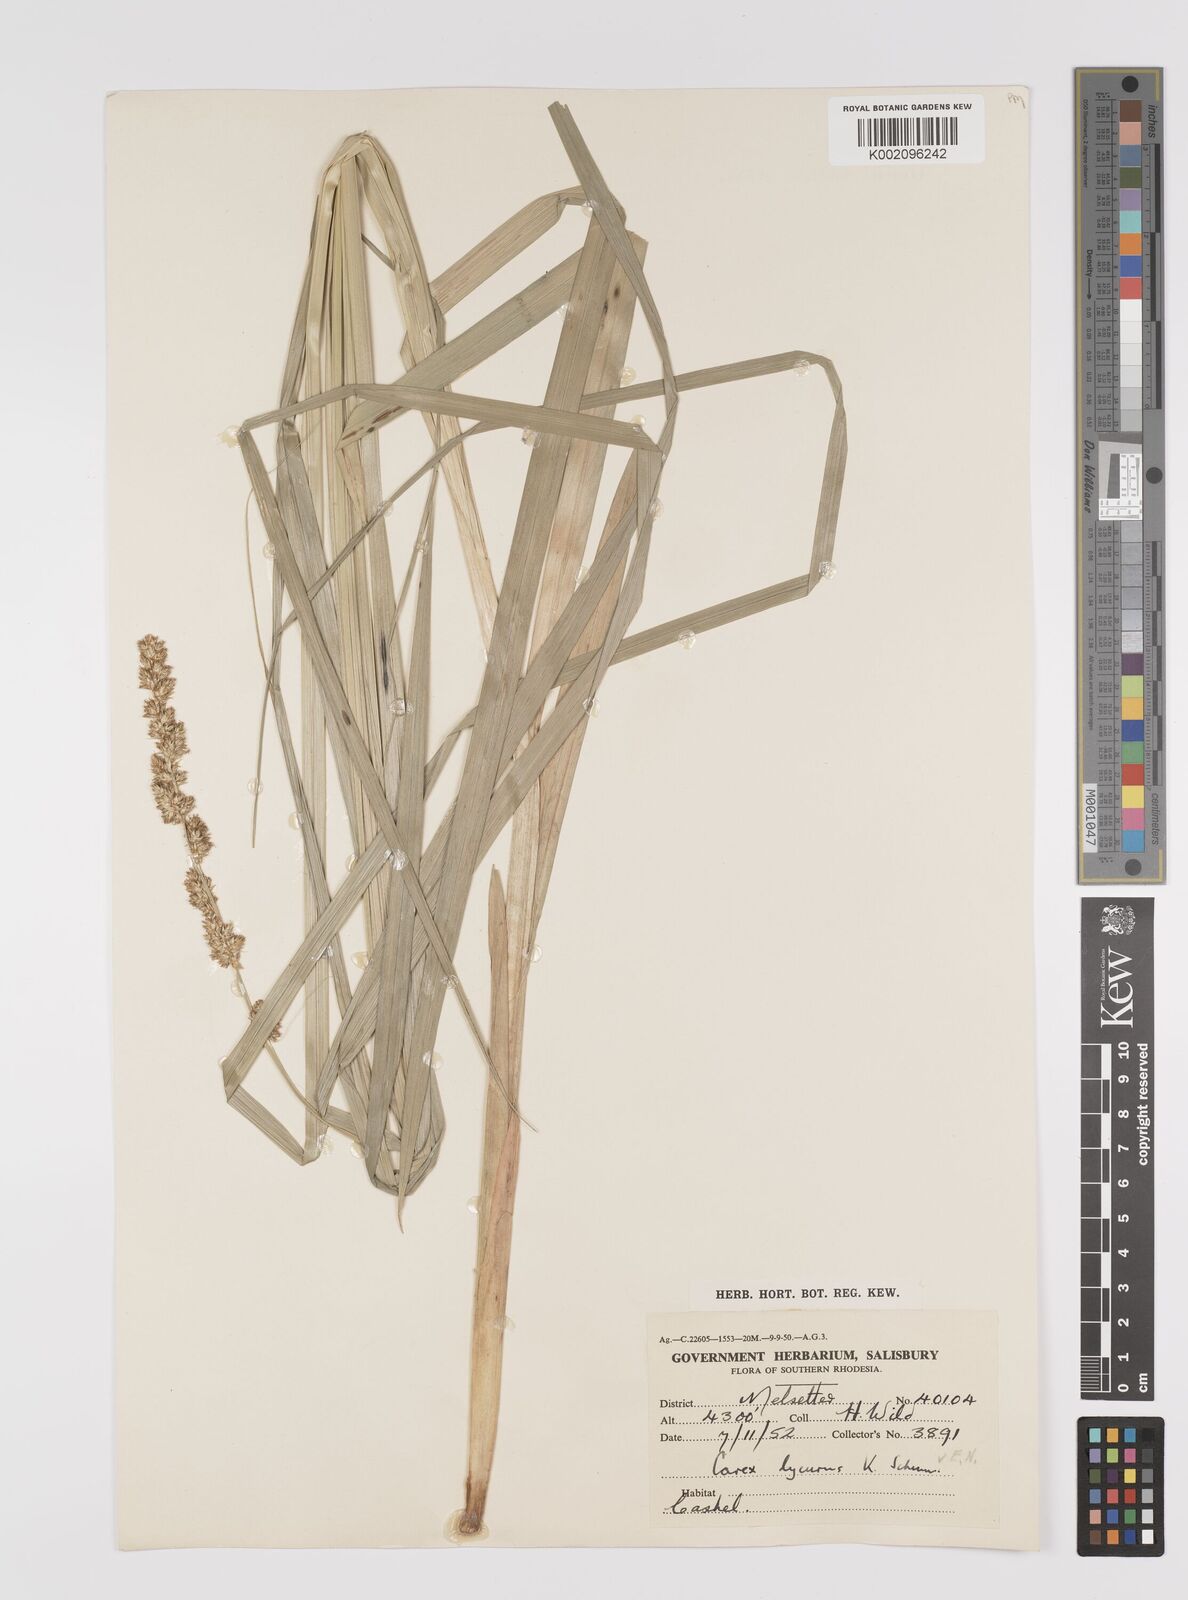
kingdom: Plantae
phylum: Tracheophyta
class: Liliopsida
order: Poales
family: Cyperaceae
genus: Carex
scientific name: Carex lycurus
